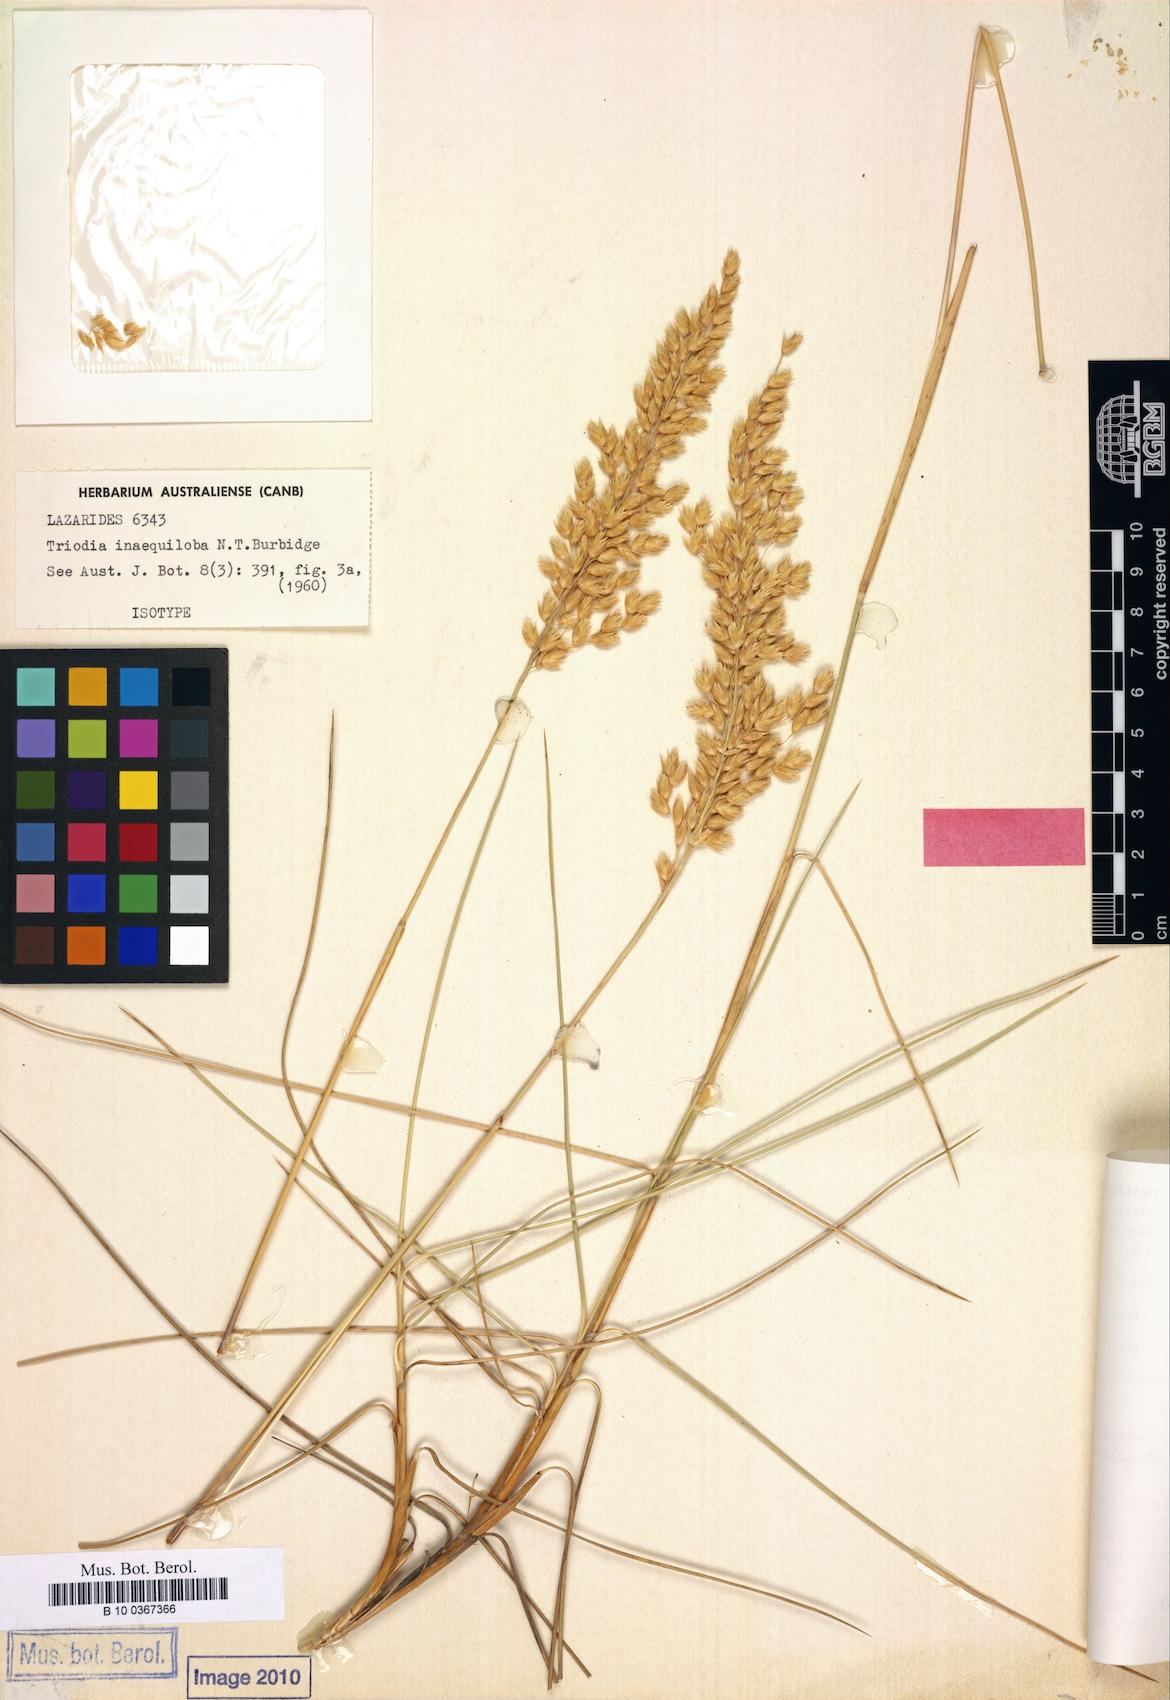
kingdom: Plantae
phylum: Tracheophyta
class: Liliopsida
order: Poales
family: Poaceae
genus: Triodia
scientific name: Triodia inaequiloba
